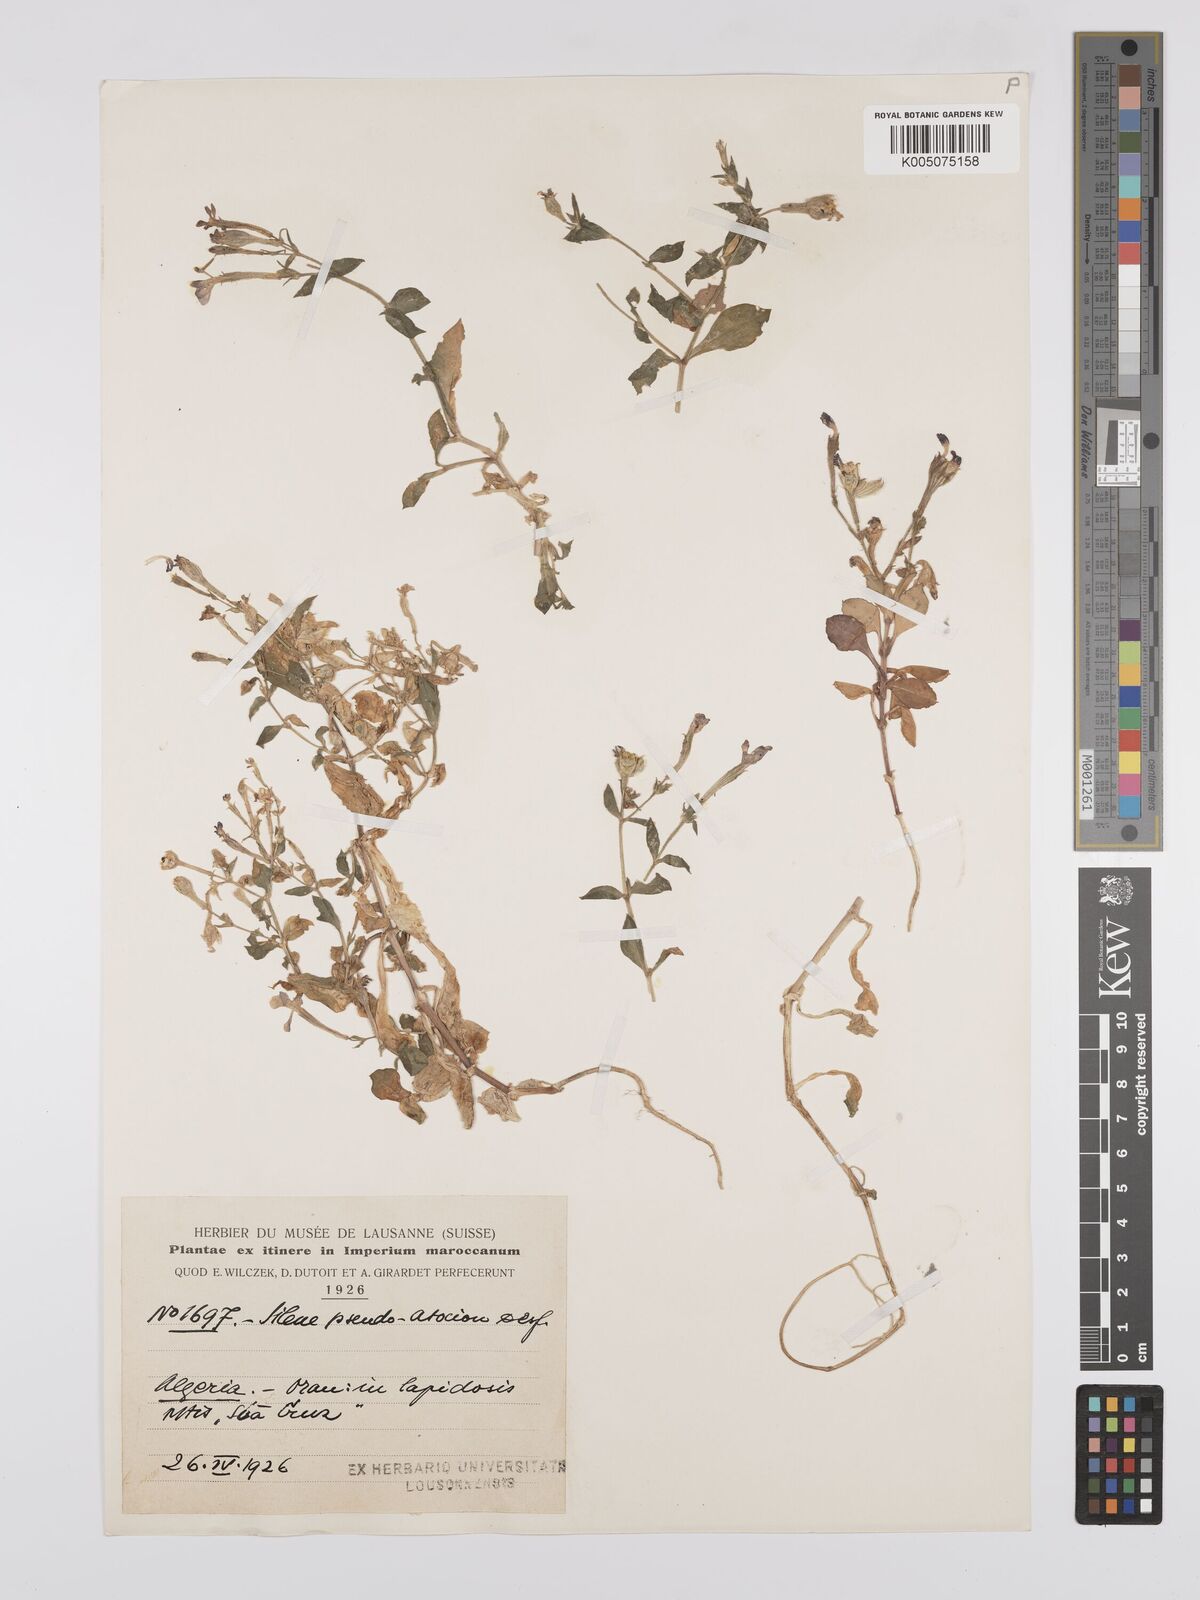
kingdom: Plantae
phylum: Tracheophyta
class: Magnoliopsida
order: Caryophyllales
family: Caryophyllaceae
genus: Silene
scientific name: Silene pseudoatocion
